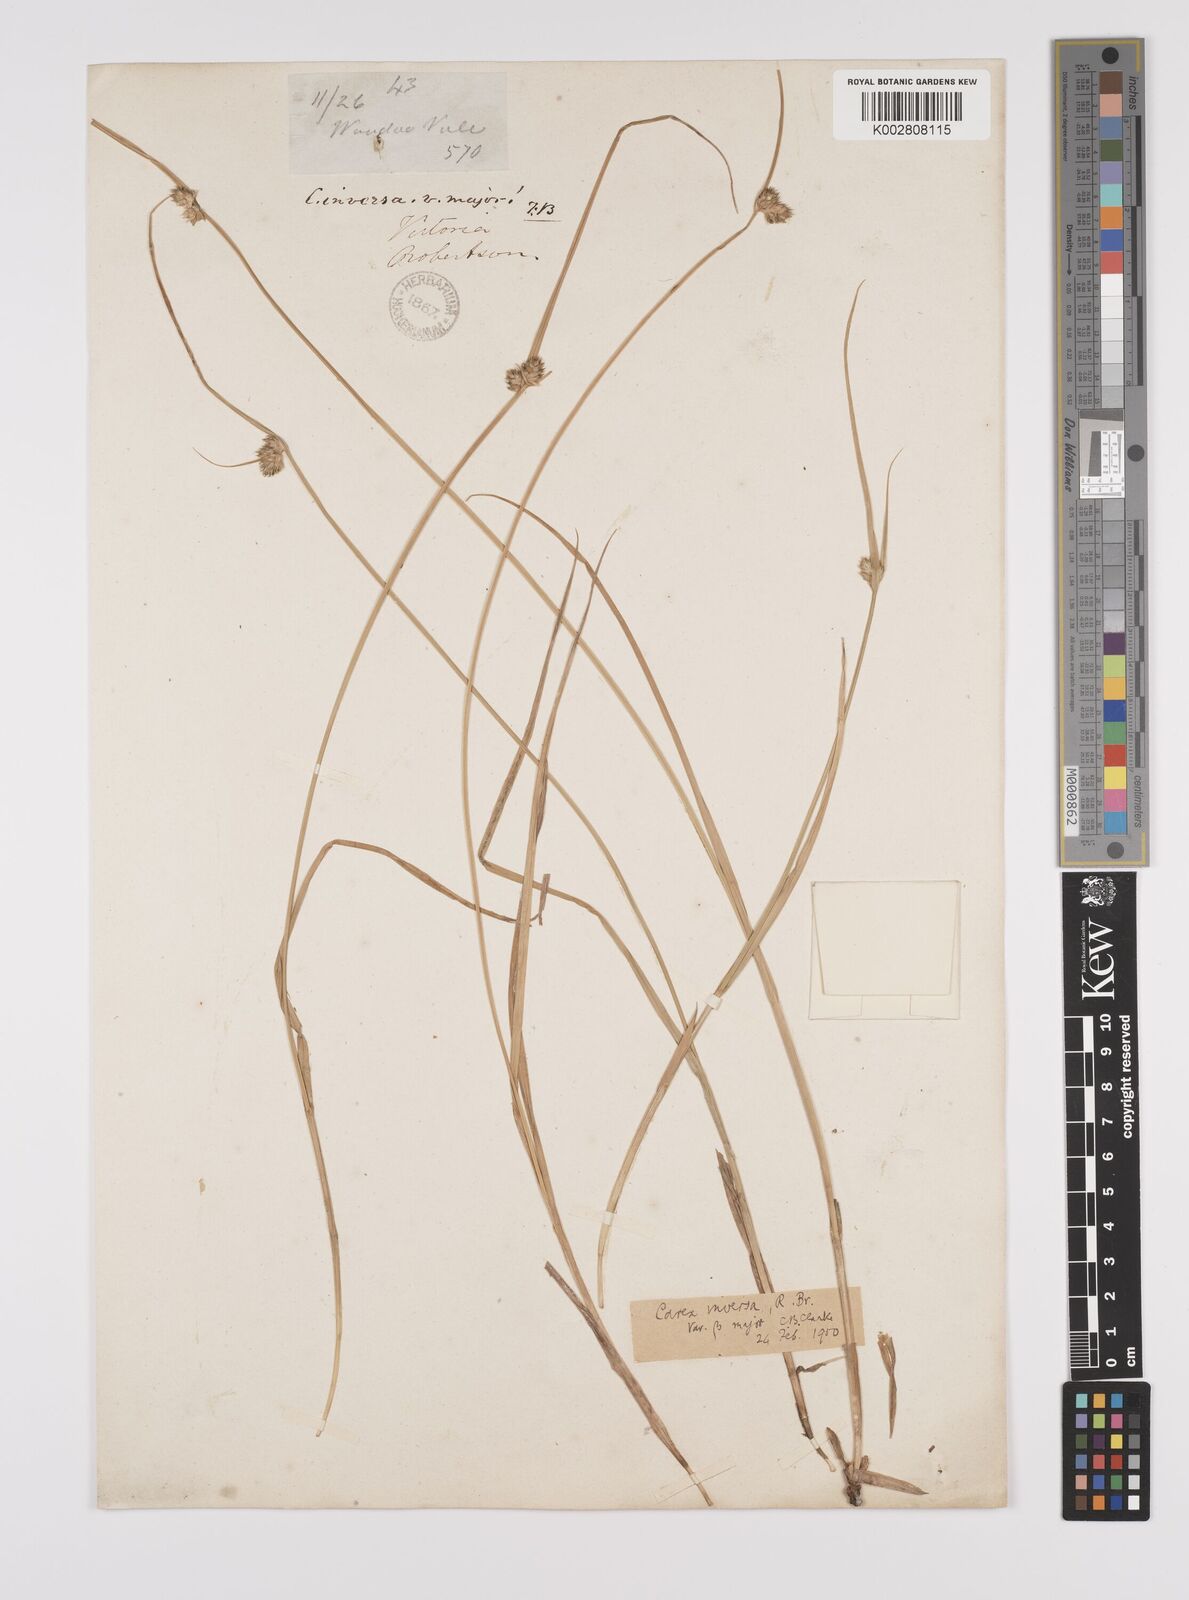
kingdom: Plantae
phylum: Tracheophyta
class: Liliopsida
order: Poales
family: Cyperaceae
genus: Carex
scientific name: Carex inversa
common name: Knob sedge
